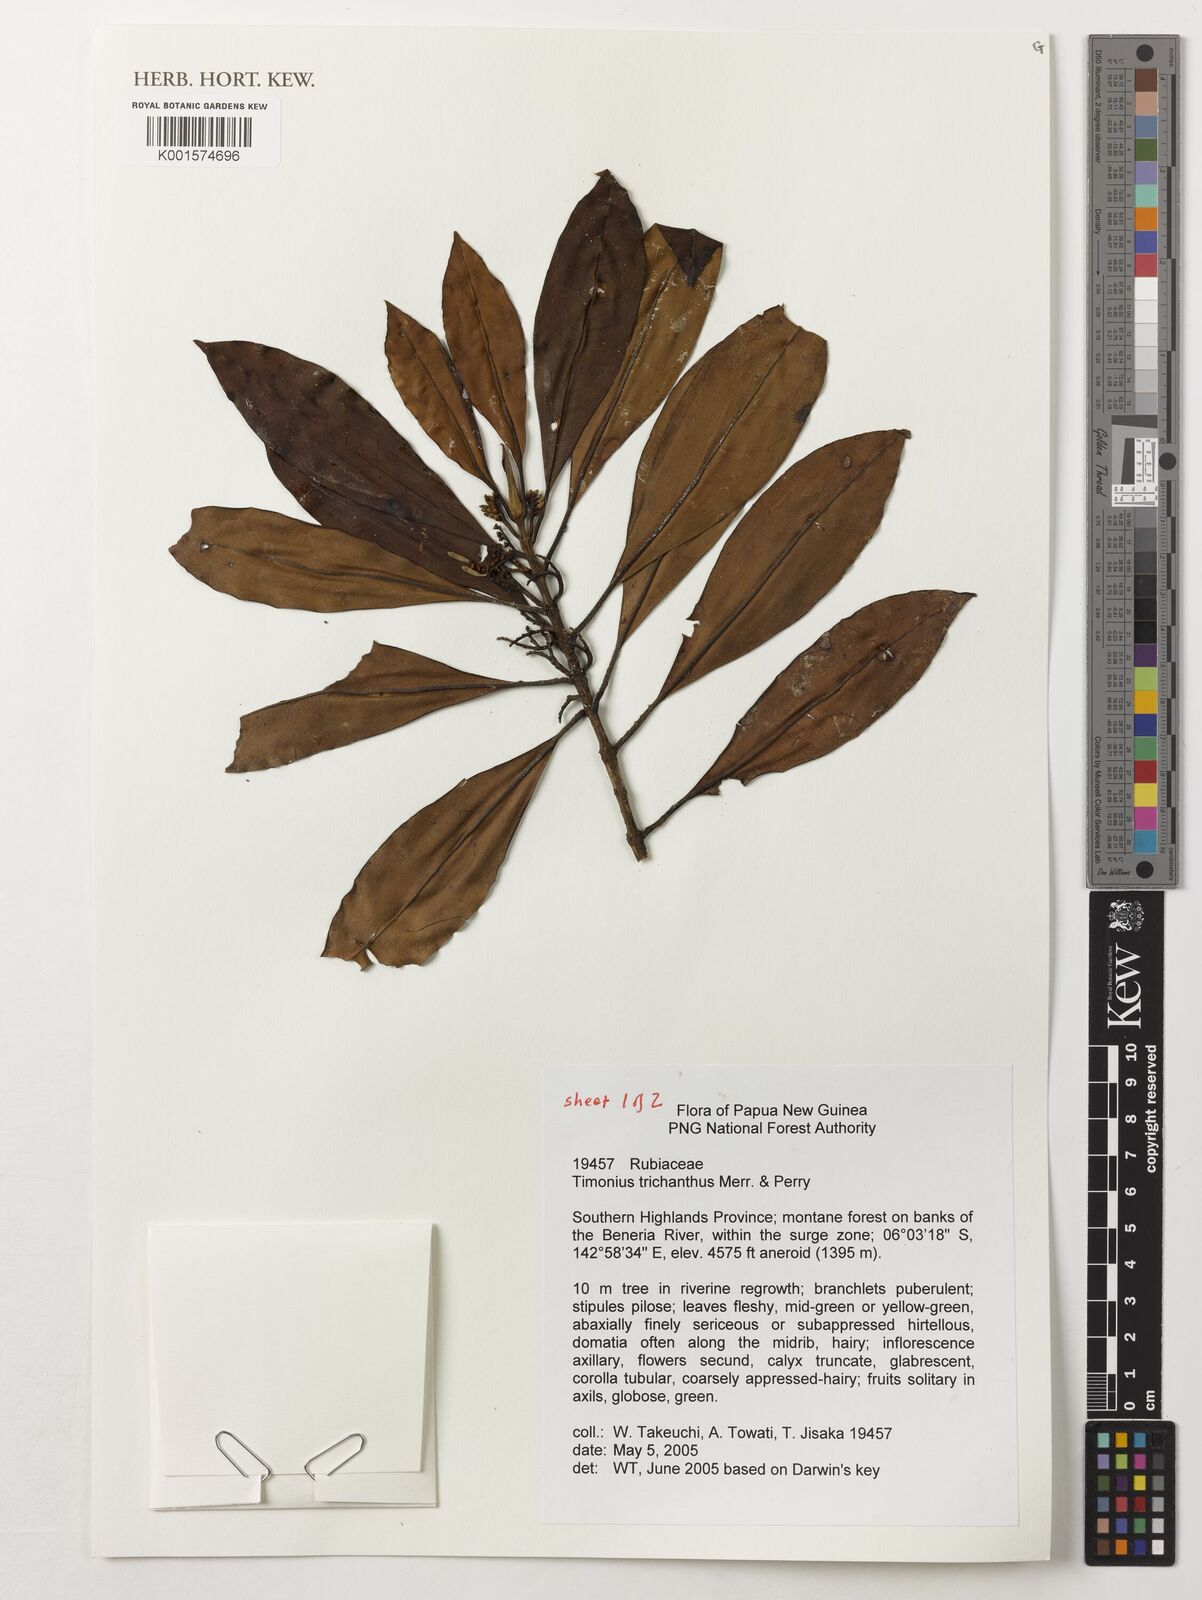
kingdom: Plantae
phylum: Tracheophyta
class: Magnoliopsida
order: Gentianales
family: Rubiaceae
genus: Timonius
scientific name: Timonius trichanthus
